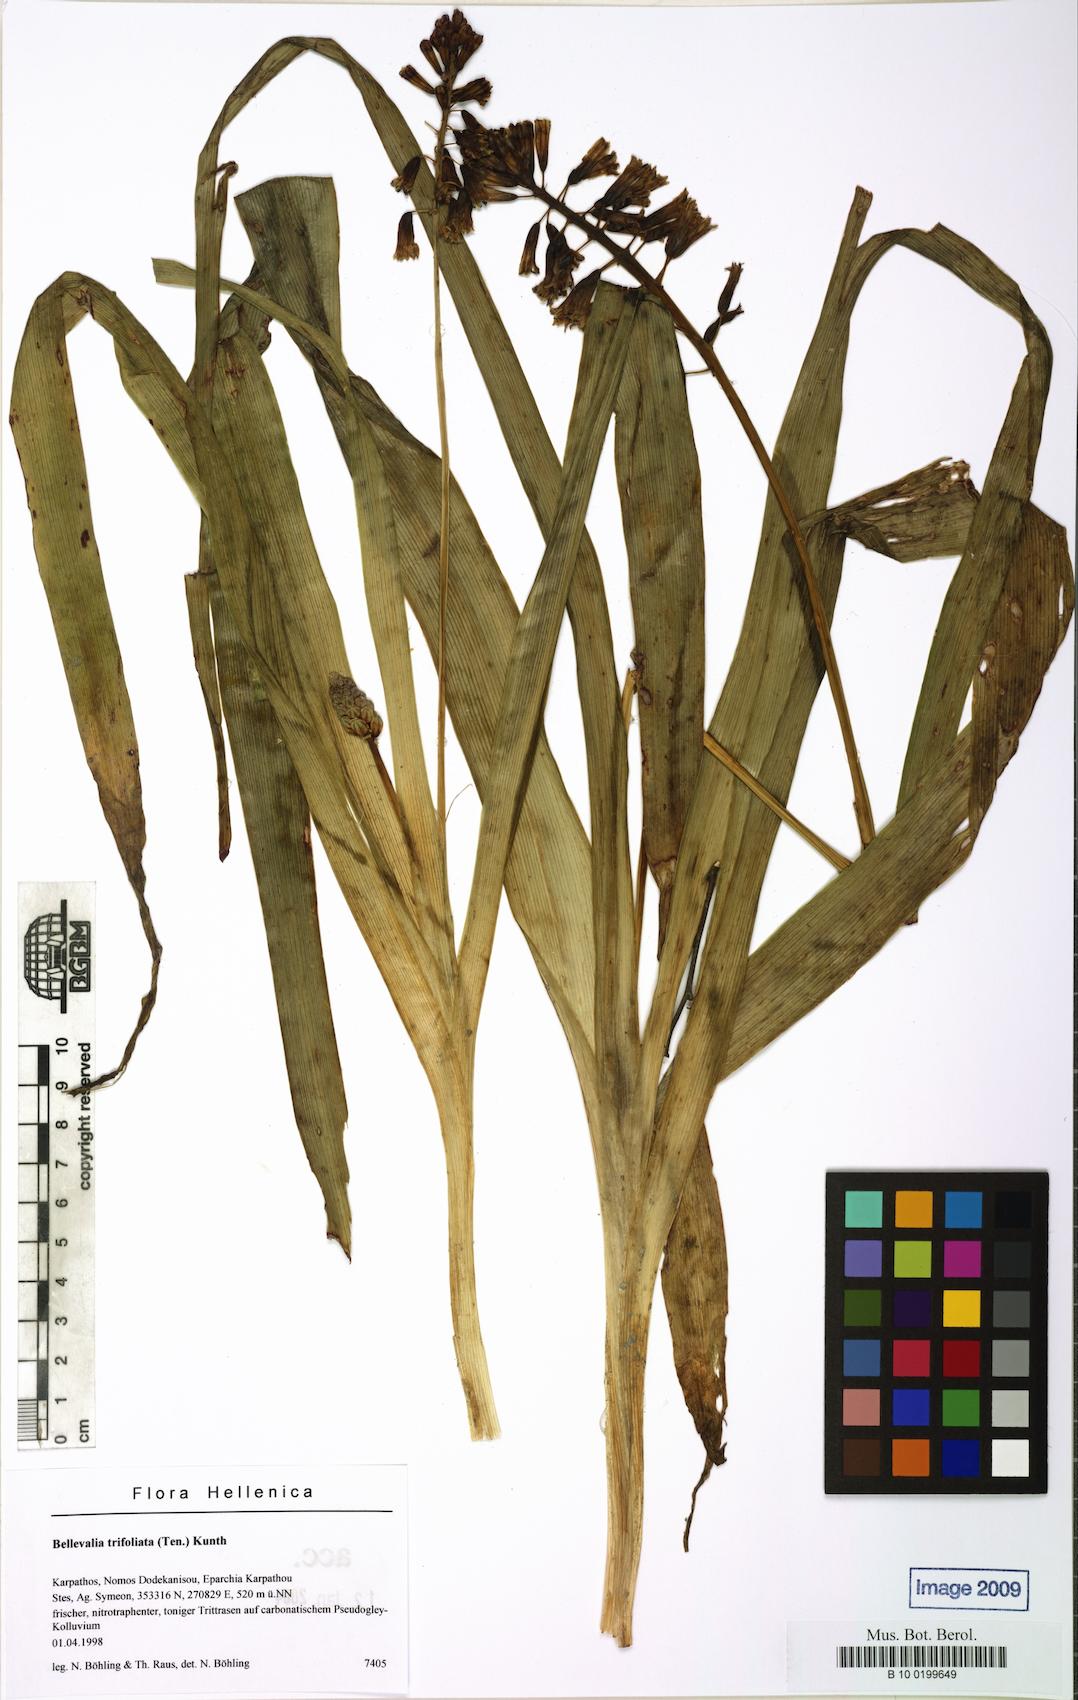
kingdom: Plantae
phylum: Tracheophyta
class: Liliopsida
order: Asparagales
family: Asparagaceae
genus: Bellevalia
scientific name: Bellevalia trifoliata
